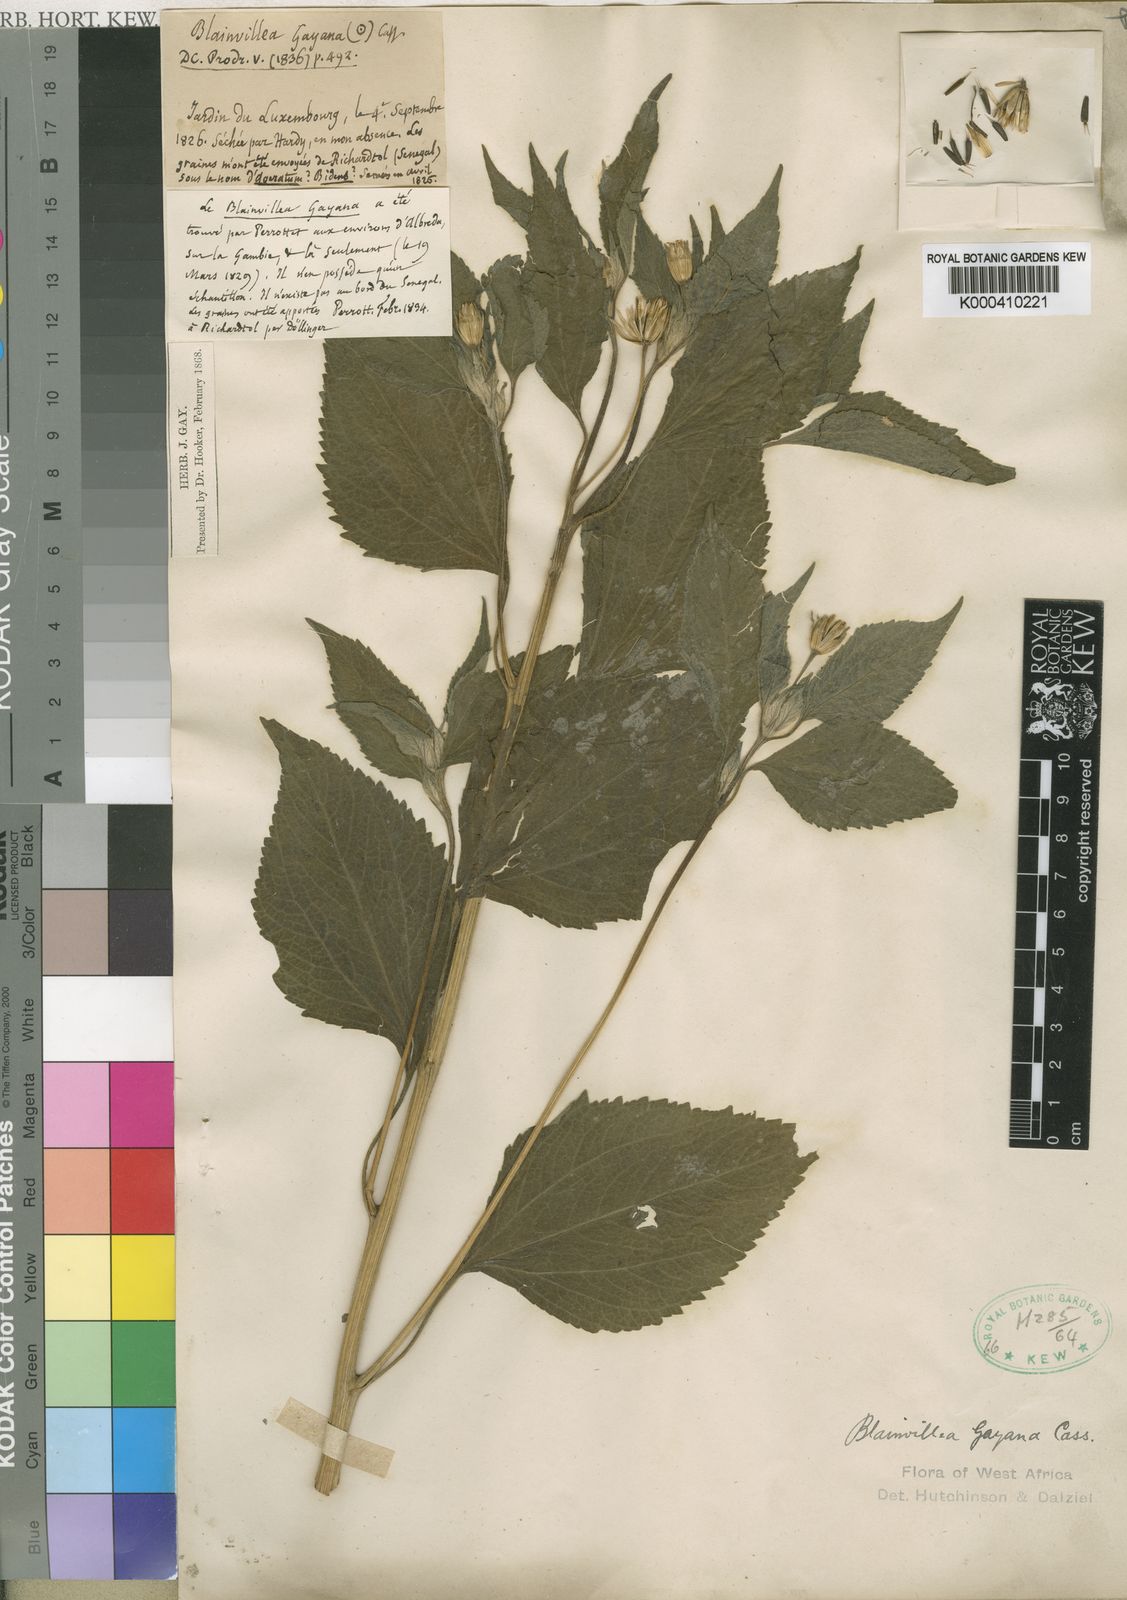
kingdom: Plantae
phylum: Tracheophyta
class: Magnoliopsida
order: Asterales
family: Asteraceae
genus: Blainvillea
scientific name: Blainvillea gayana
